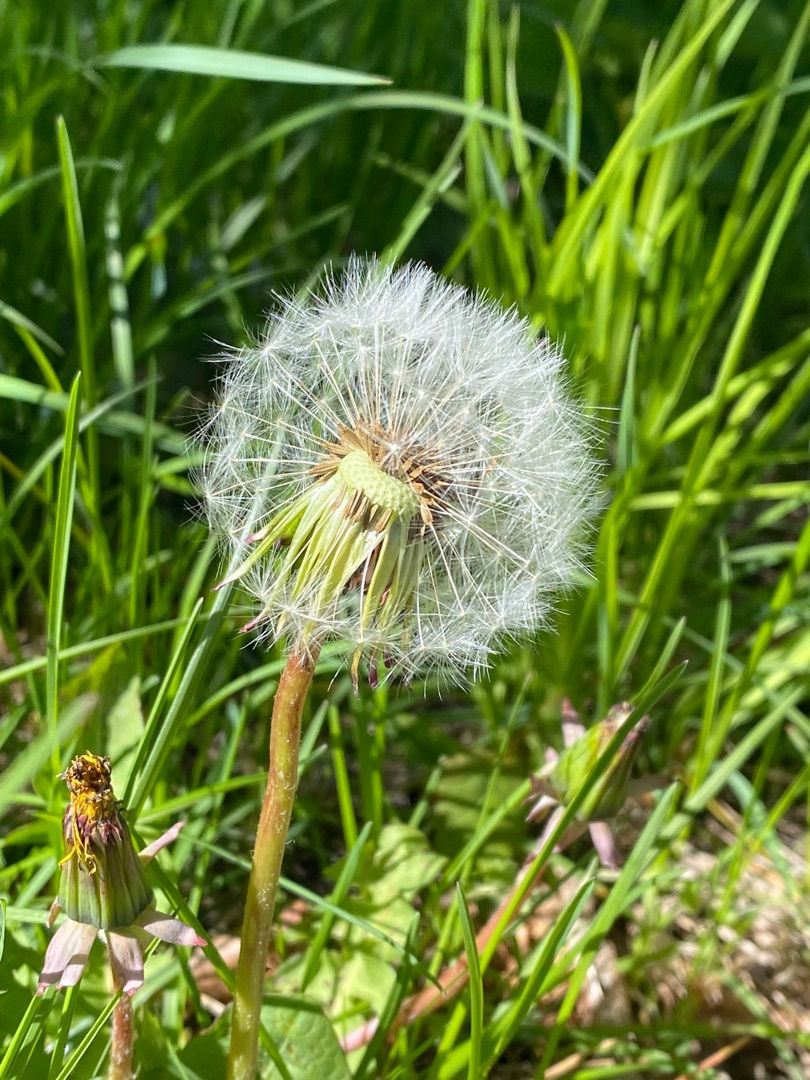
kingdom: Plantae
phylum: Tracheophyta
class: Magnoliopsida
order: Asterales
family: Asteraceae
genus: Taraxacum
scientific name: Taraxacum
